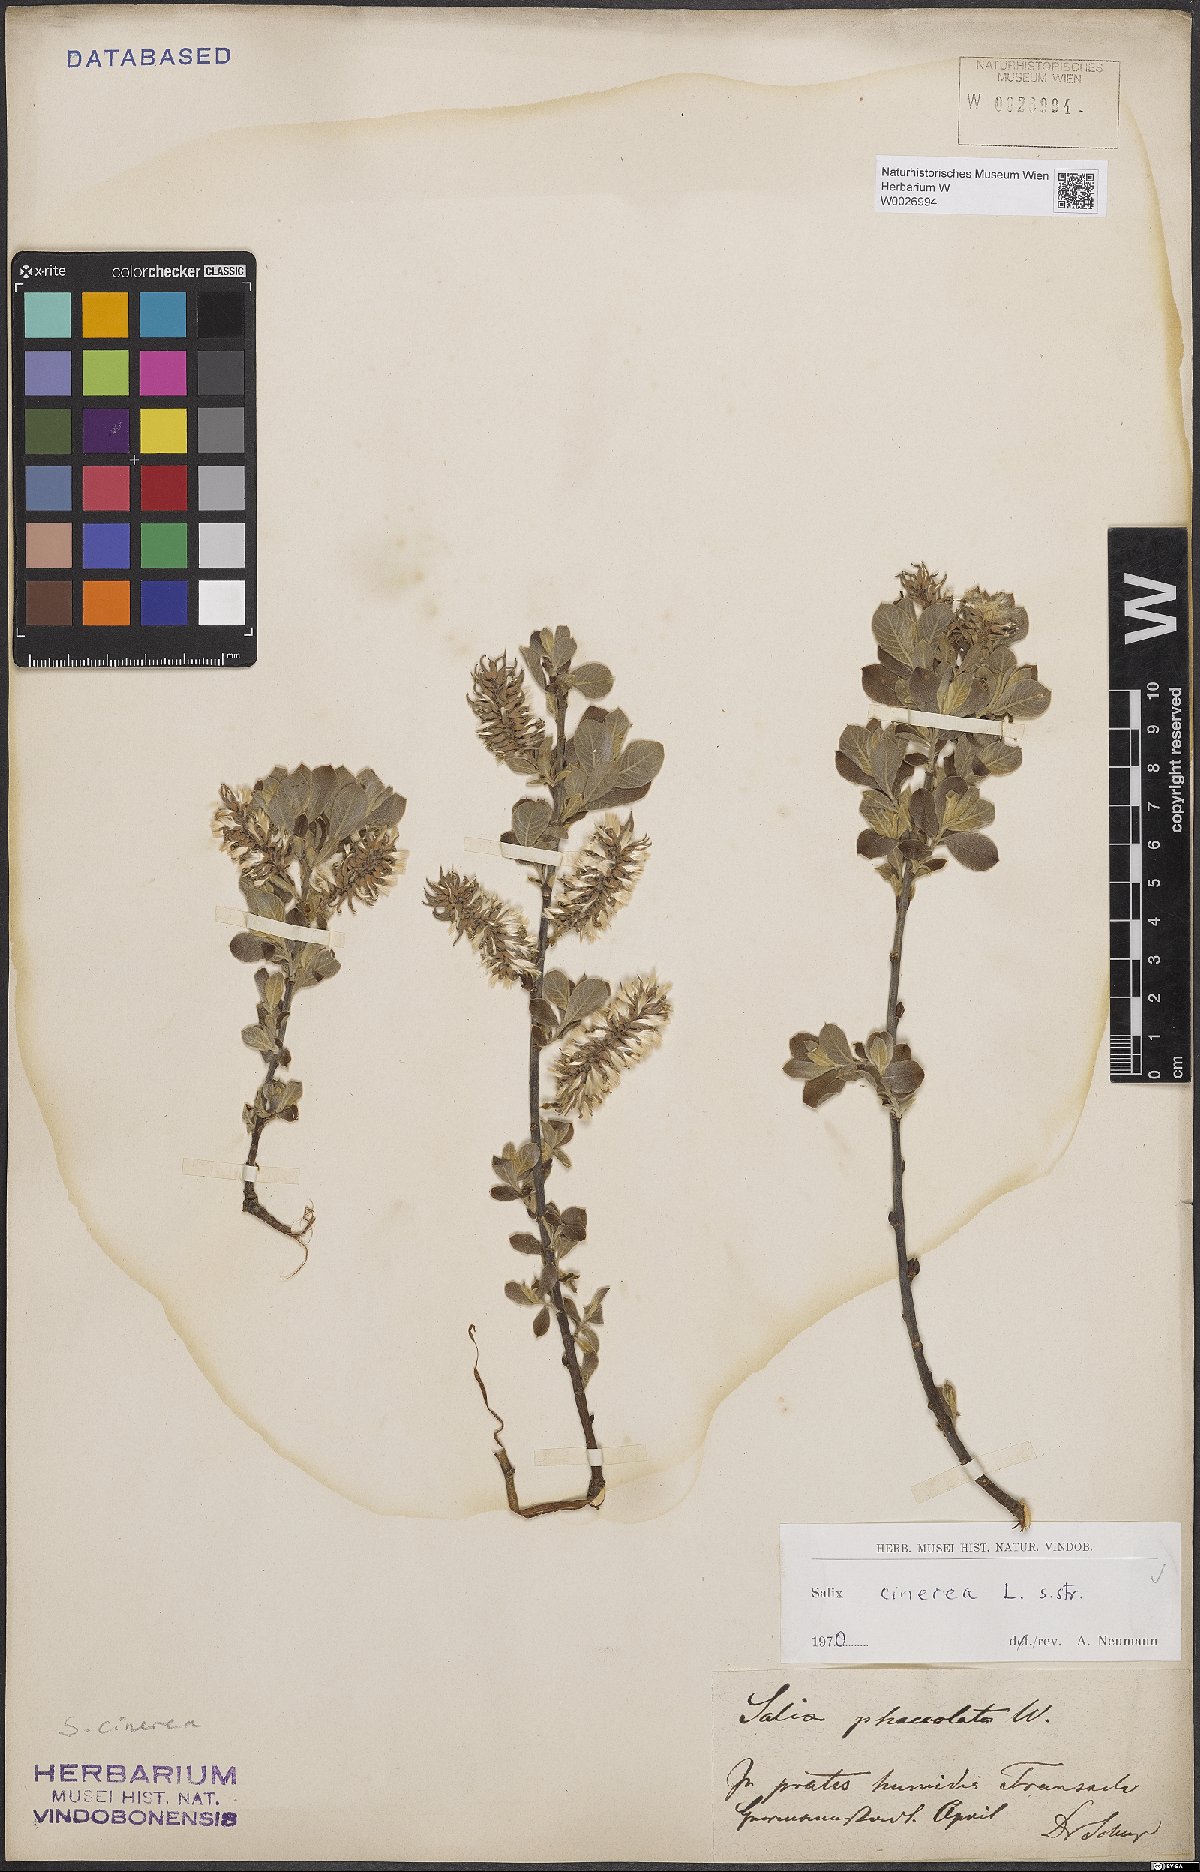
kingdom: Plantae
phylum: Tracheophyta
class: Magnoliopsida
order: Malpighiales
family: Salicaceae
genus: Salix
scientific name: Salix cinerea
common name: Common sallow
